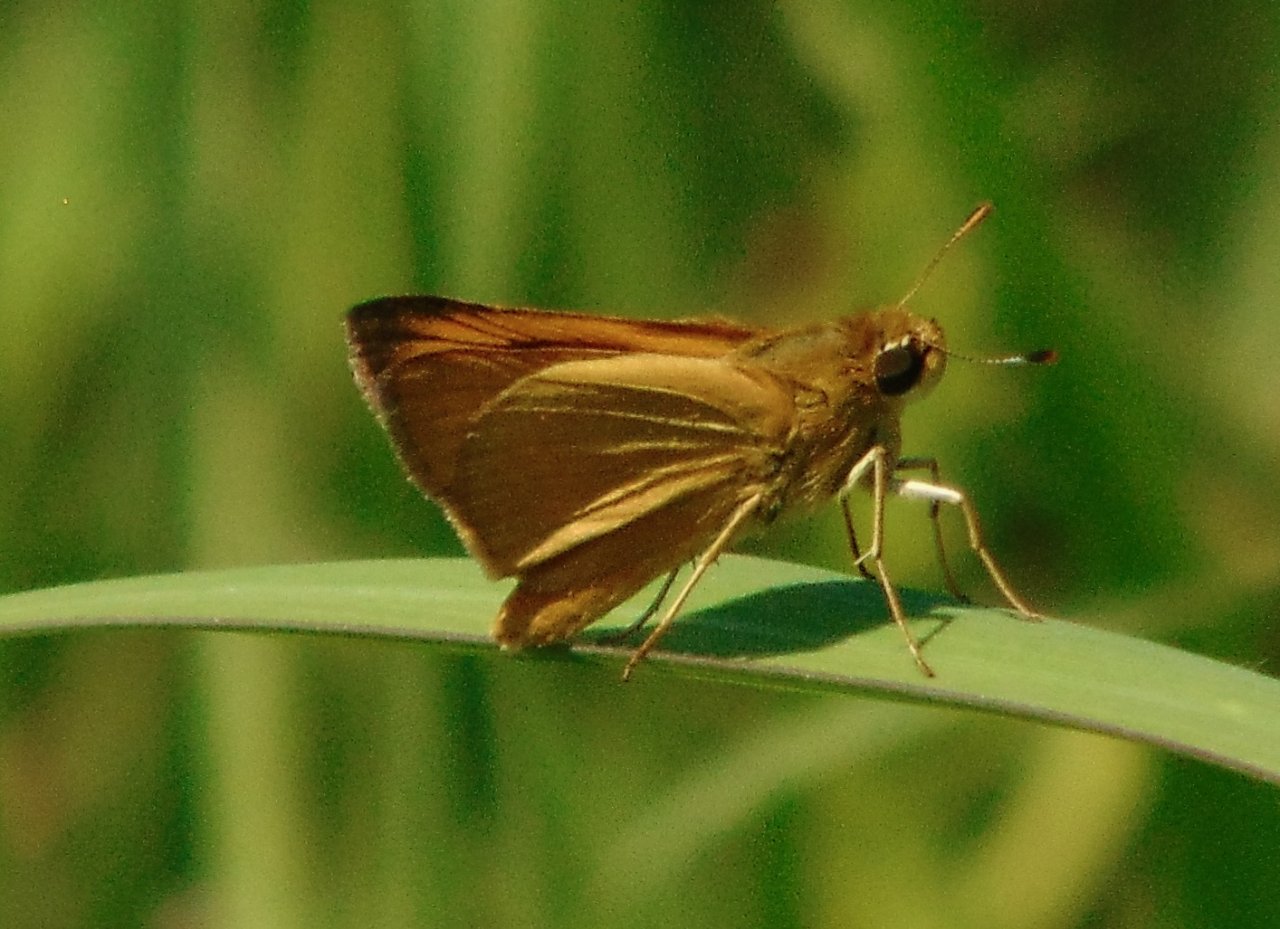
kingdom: Animalia
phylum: Arthropoda
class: Insecta
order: Lepidoptera
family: Hesperiidae
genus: Atrytone
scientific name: Atrytone delaware
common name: Delaware Skipper
